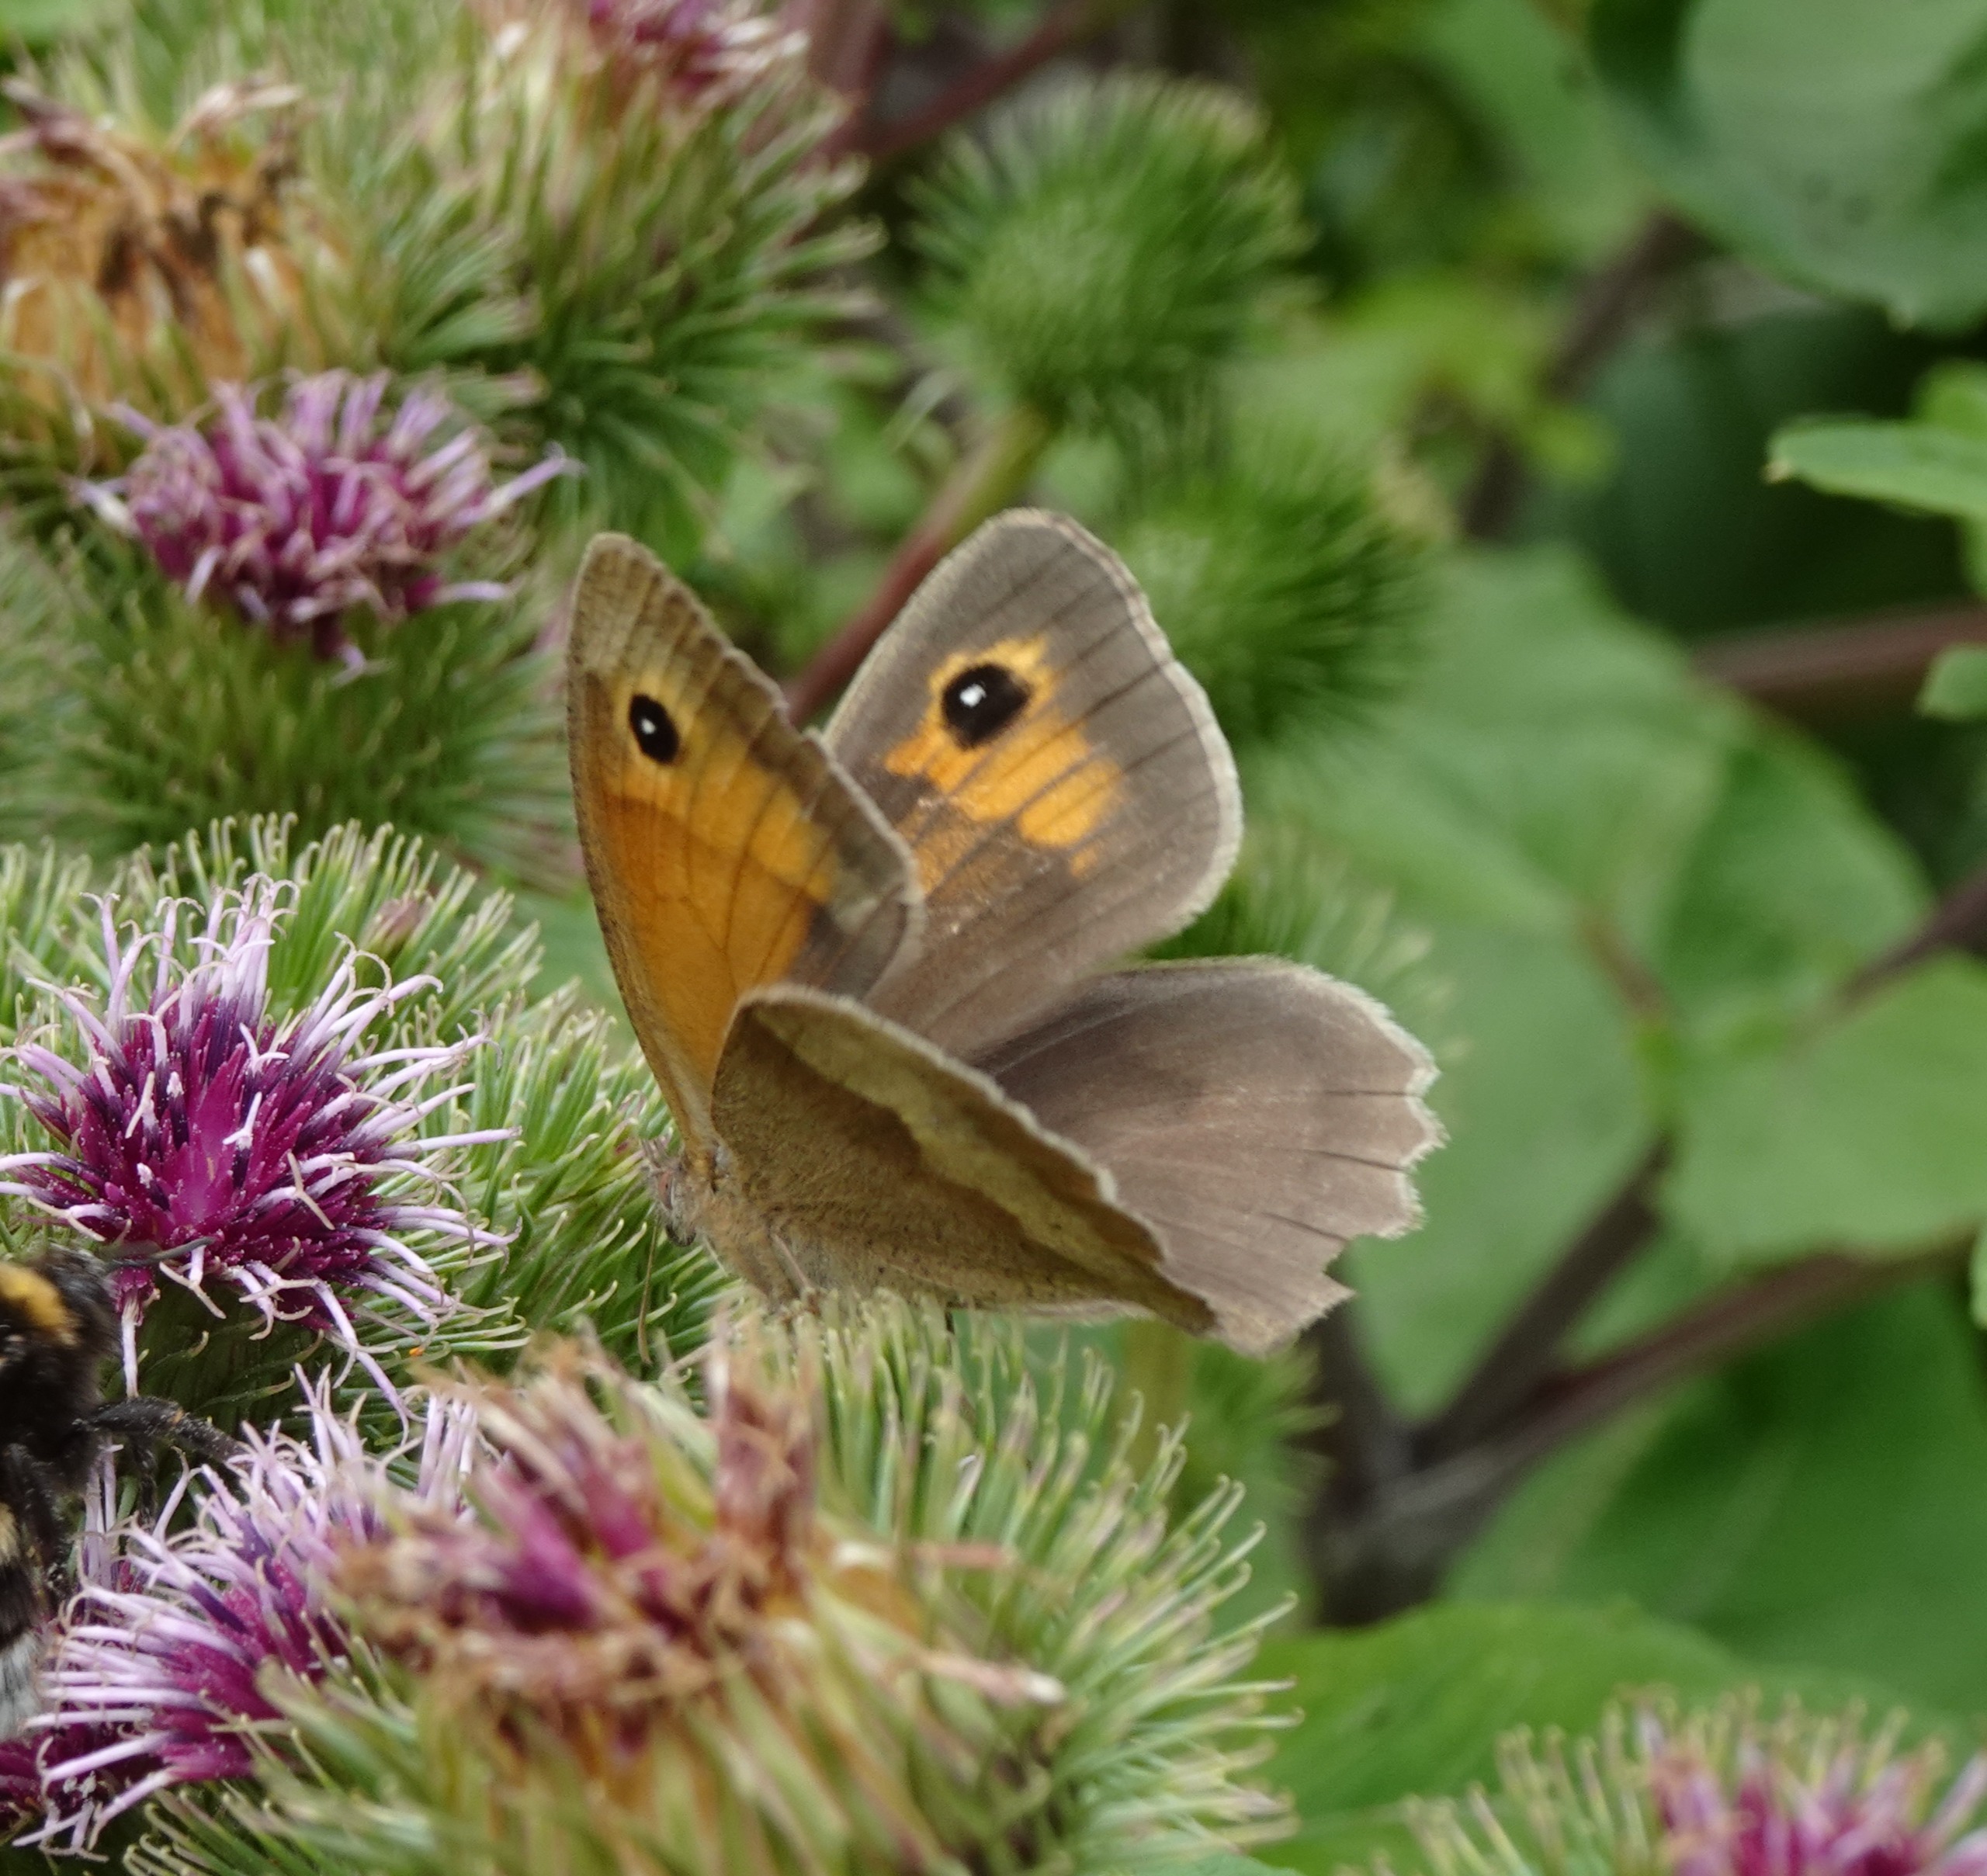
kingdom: Animalia
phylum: Arthropoda
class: Insecta
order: Lepidoptera
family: Nymphalidae
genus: Maniola
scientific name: Maniola jurtina
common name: Græsrandøje
